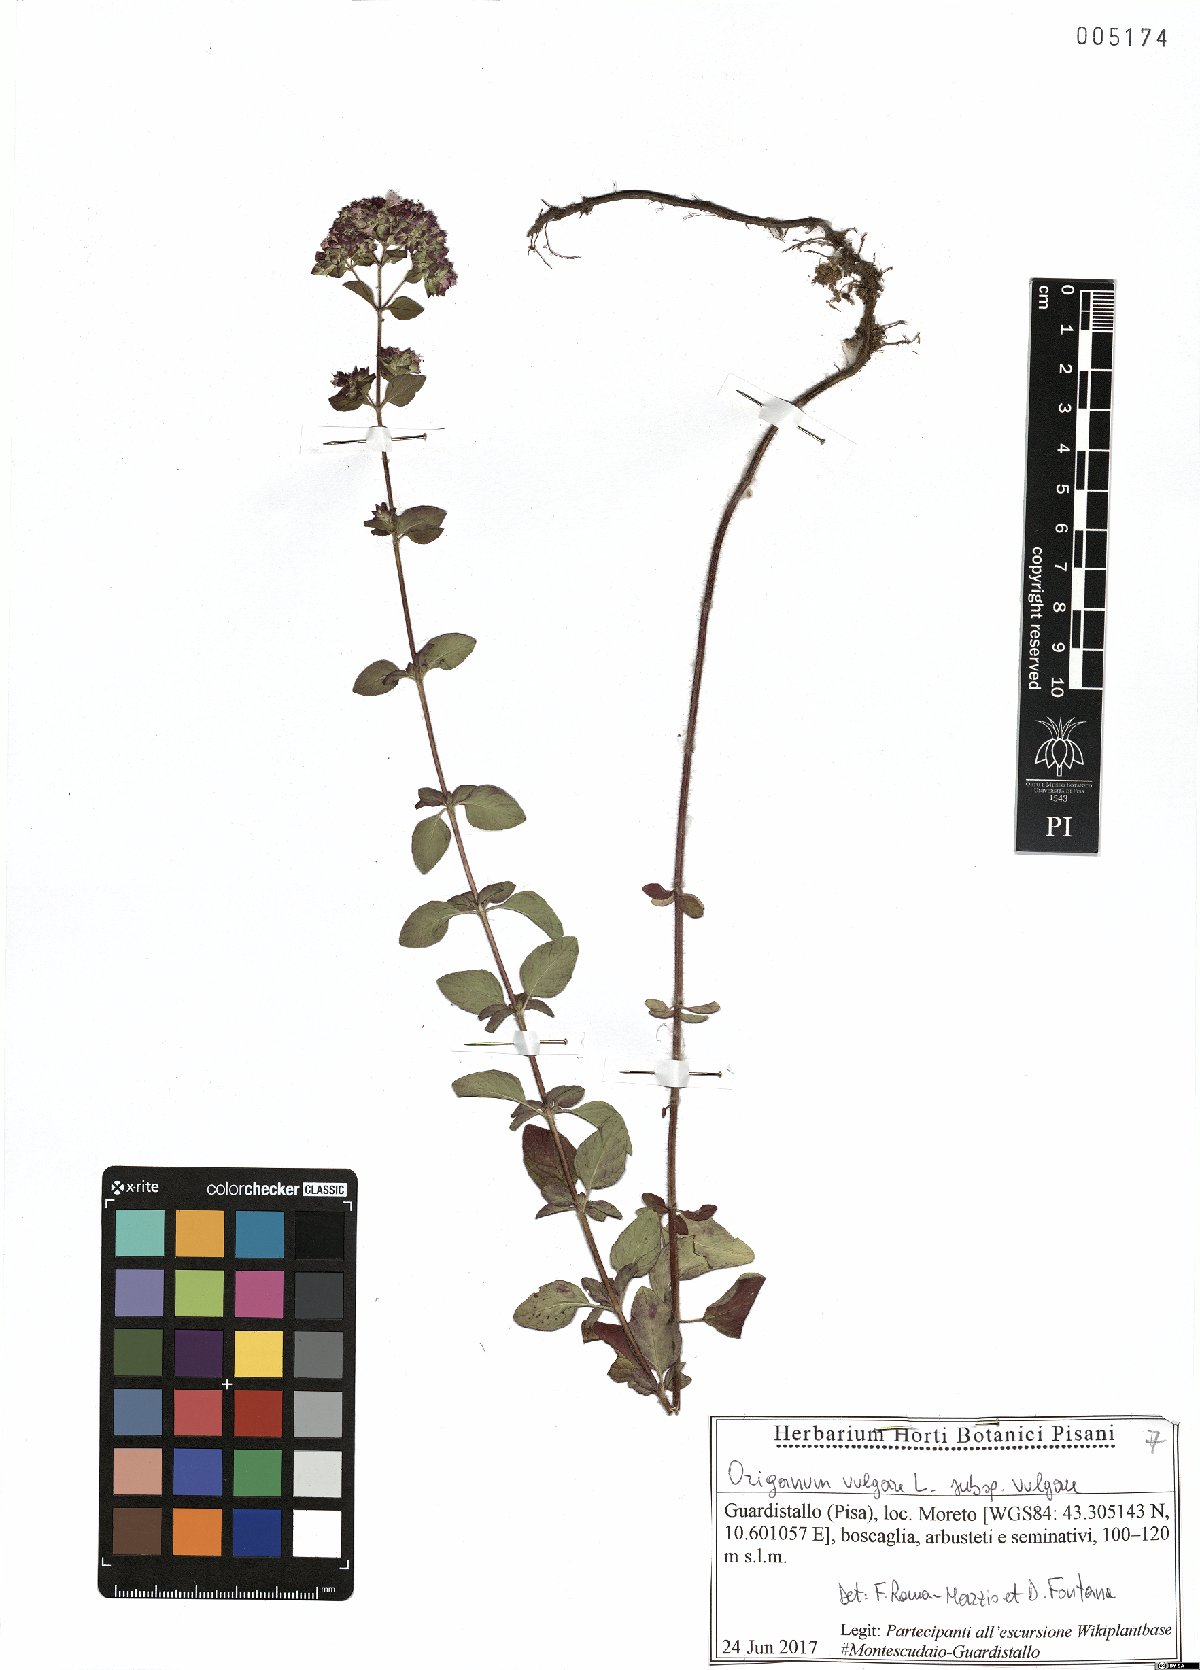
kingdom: Plantae
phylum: Tracheophyta
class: Magnoliopsida
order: Lamiales
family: Lamiaceae
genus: Origanum
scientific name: Origanum vulgare
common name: Wild marjoram
